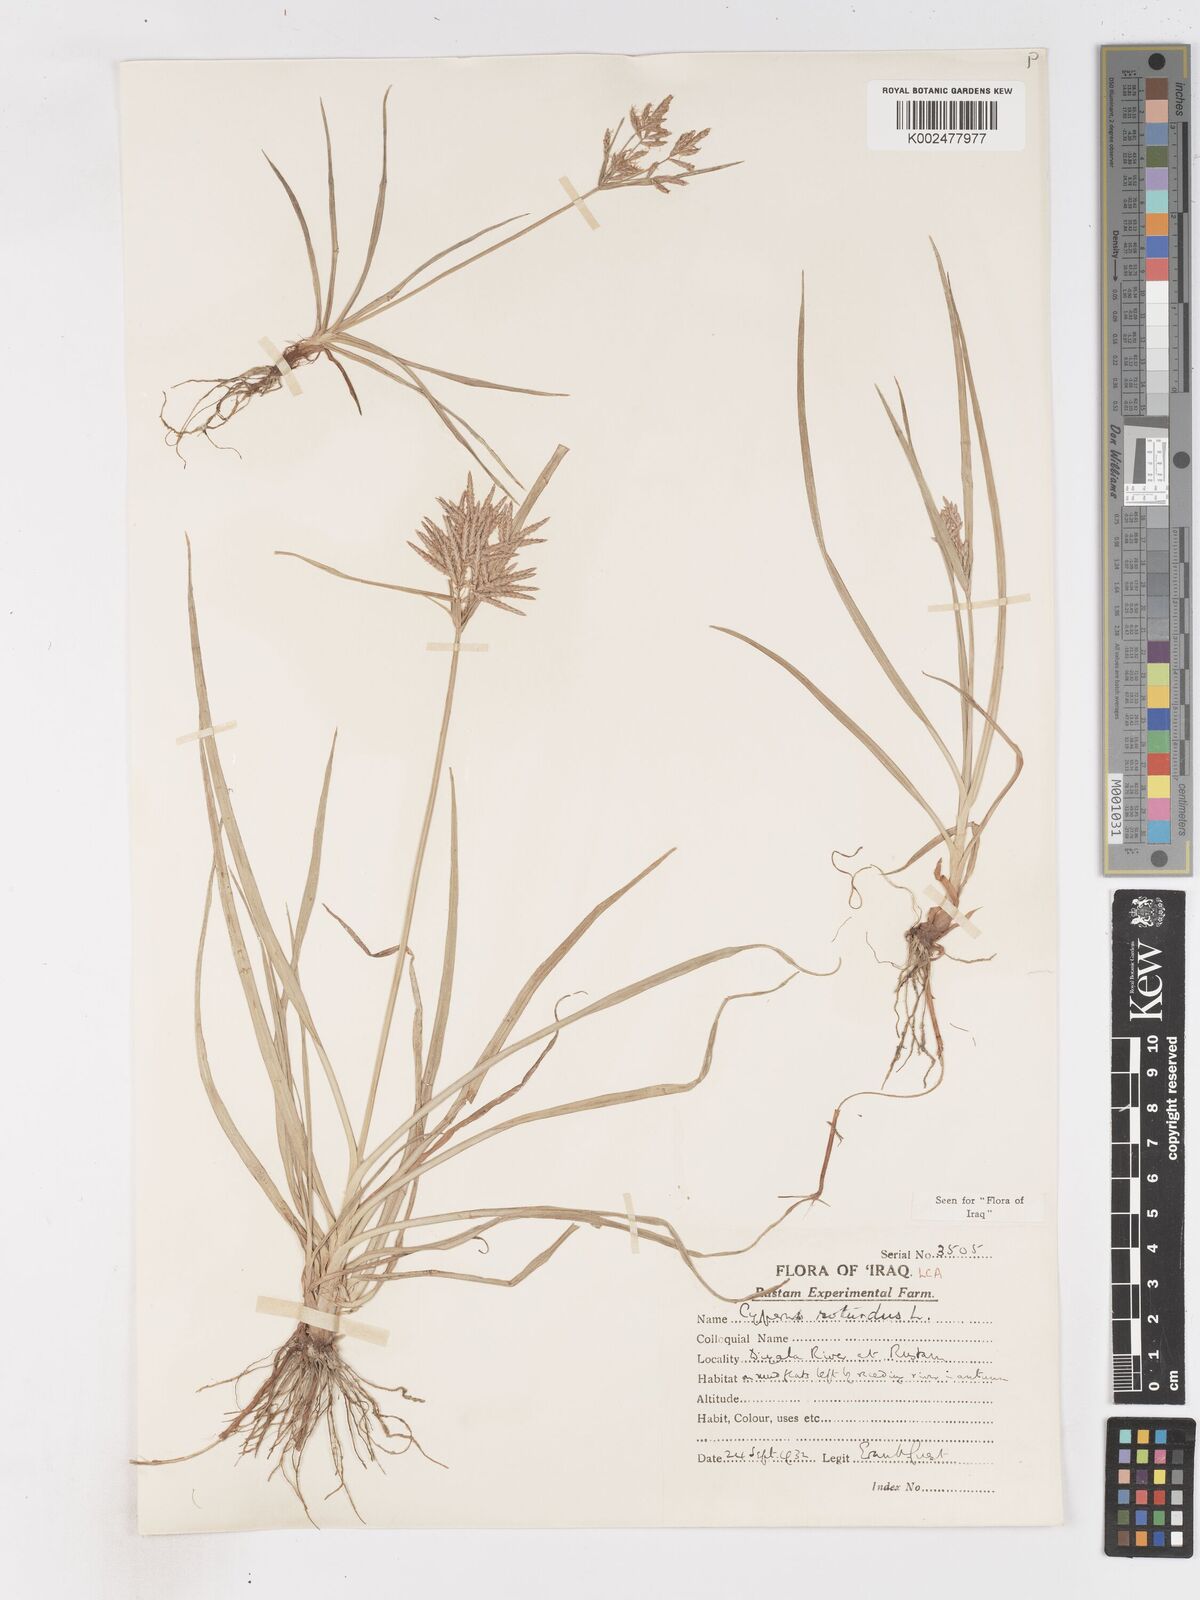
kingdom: Plantae
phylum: Tracheophyta
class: Liliopsida
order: Poales
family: Cyperaceae
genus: Cyperus
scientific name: Cyperus rotundus
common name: Nutgrass
